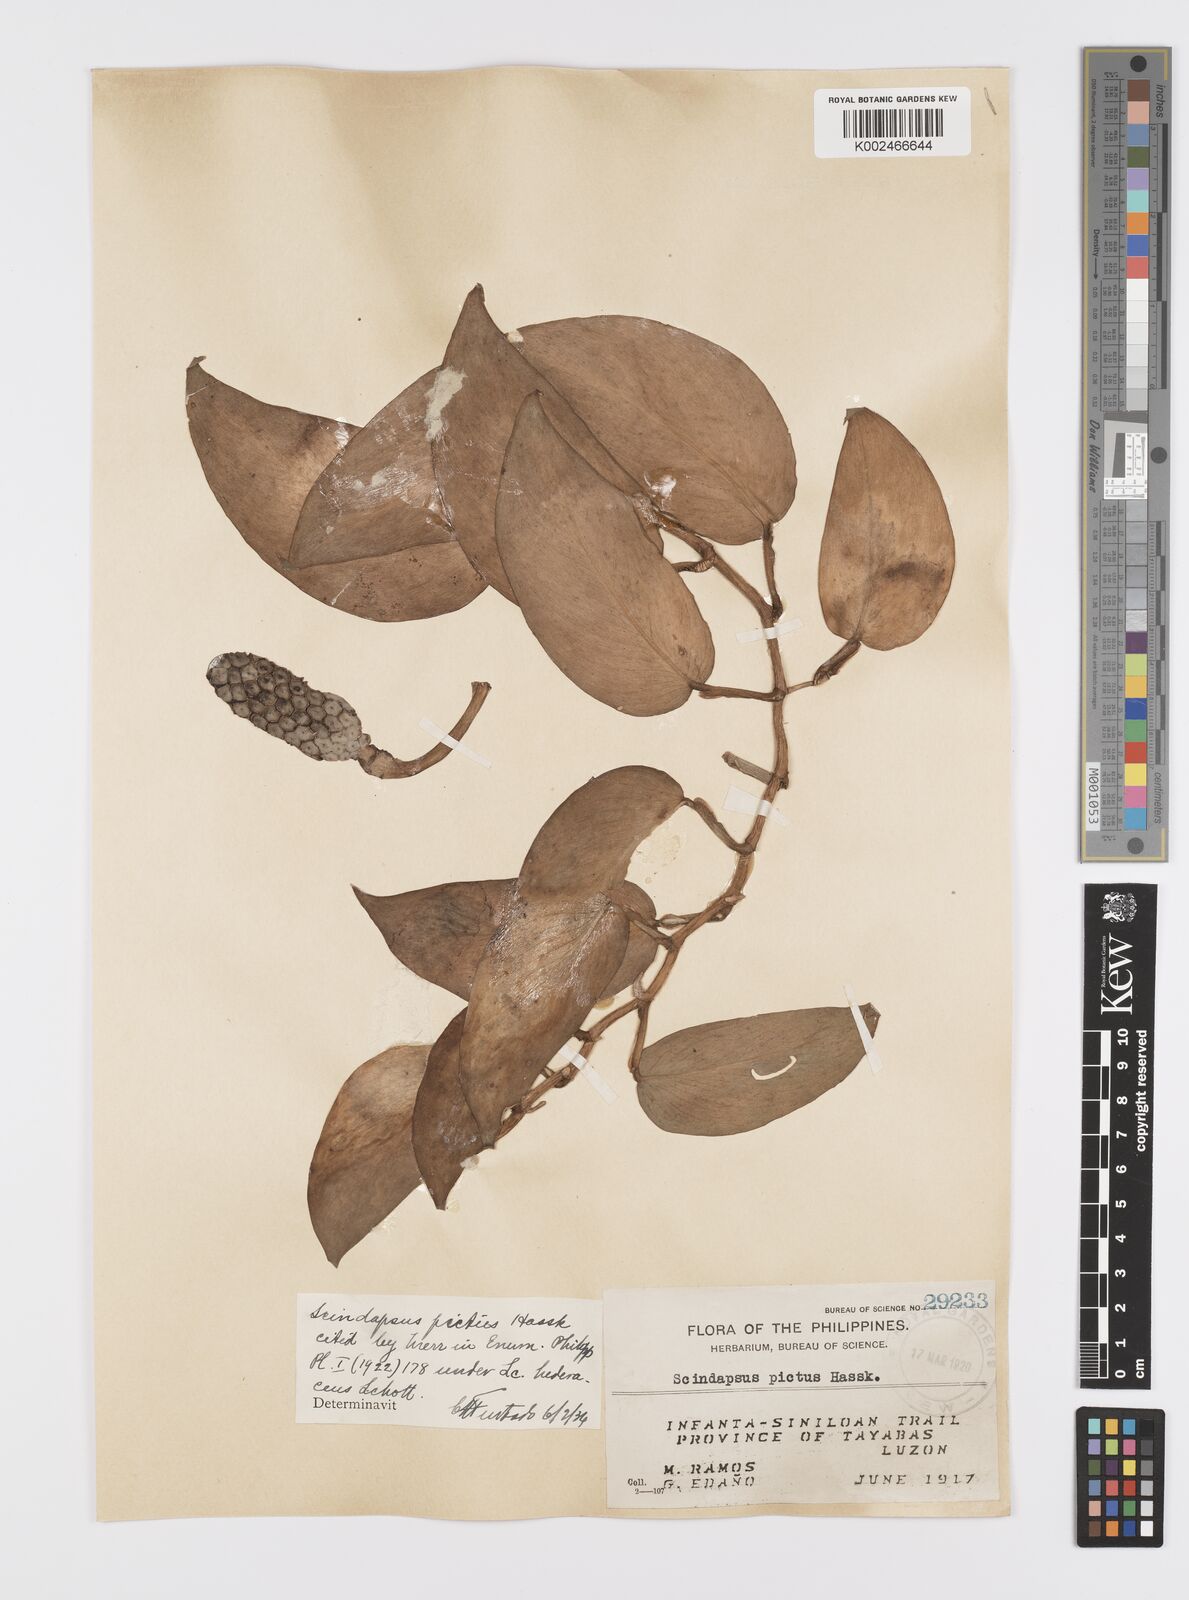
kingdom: Plantae
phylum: Tracheophyta
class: Liliopsida
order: Alismatales
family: Araceae
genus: Scindapsus
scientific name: Scindapsus pictus
